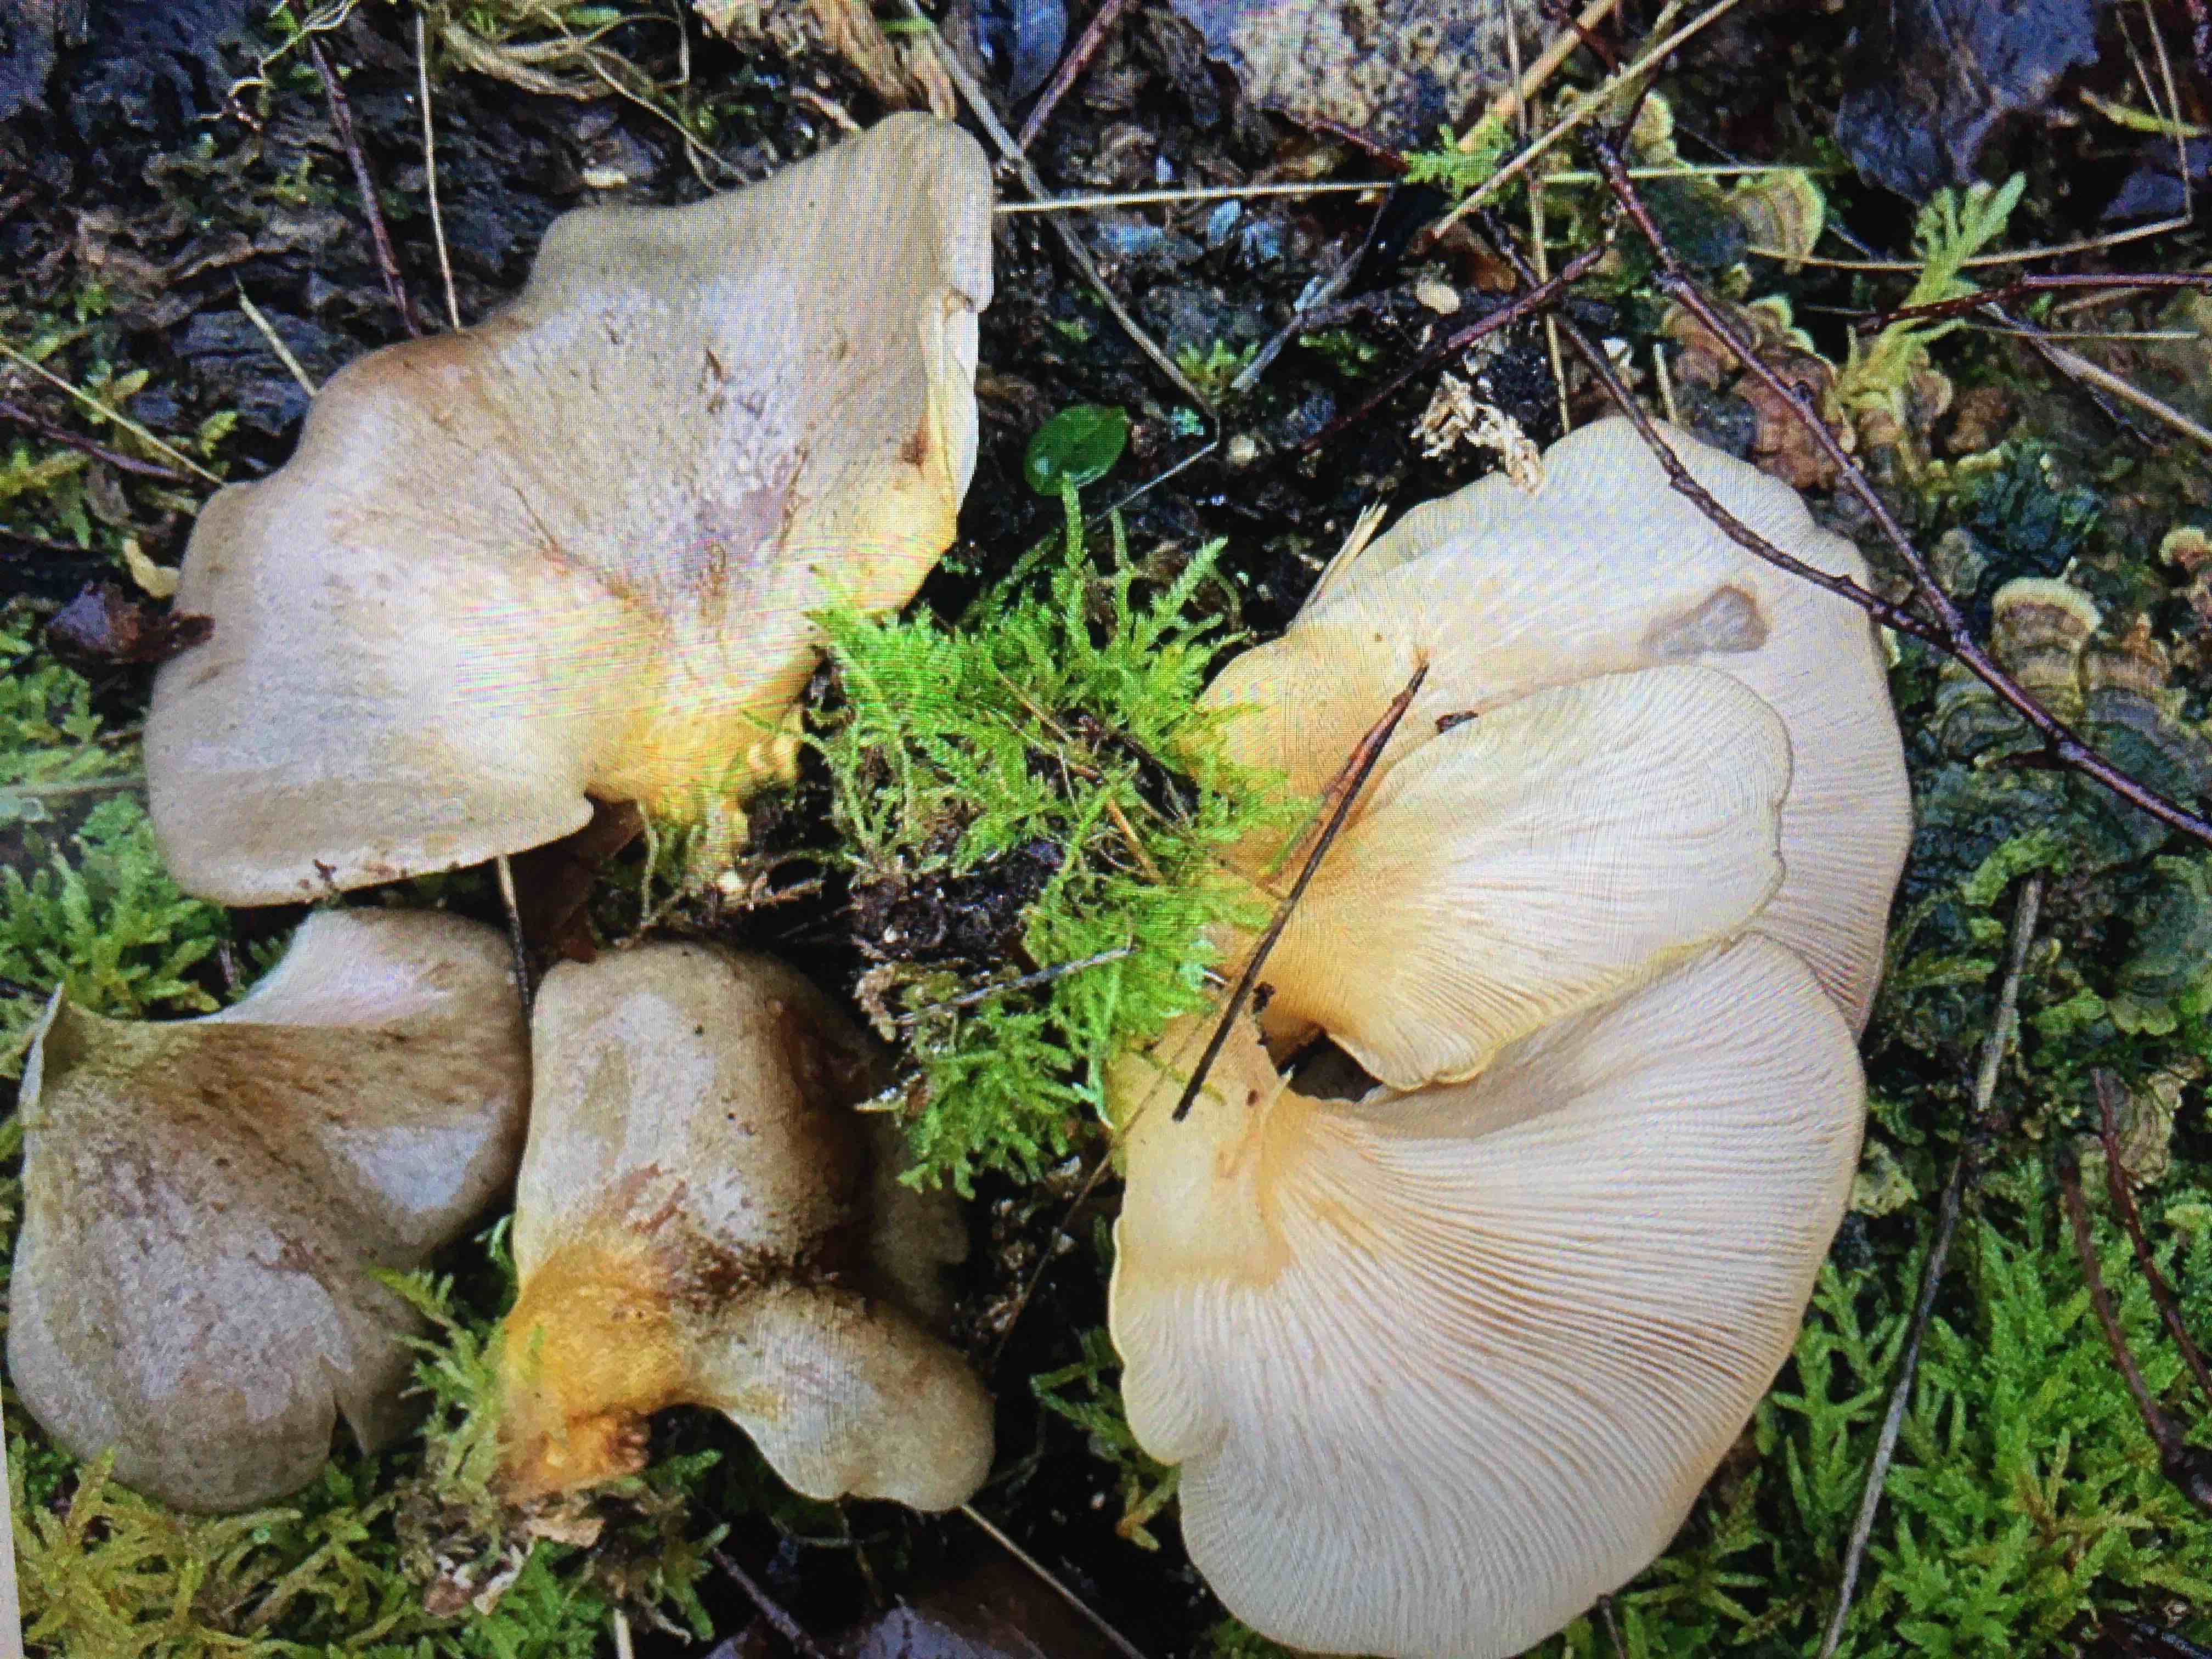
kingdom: Fungi
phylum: Basidiomycota
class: Agaricomycetes
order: Agaricales
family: Sarcomyxaceae
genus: Sarcomyxa
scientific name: Sarcomyxa serotina
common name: gummihat
